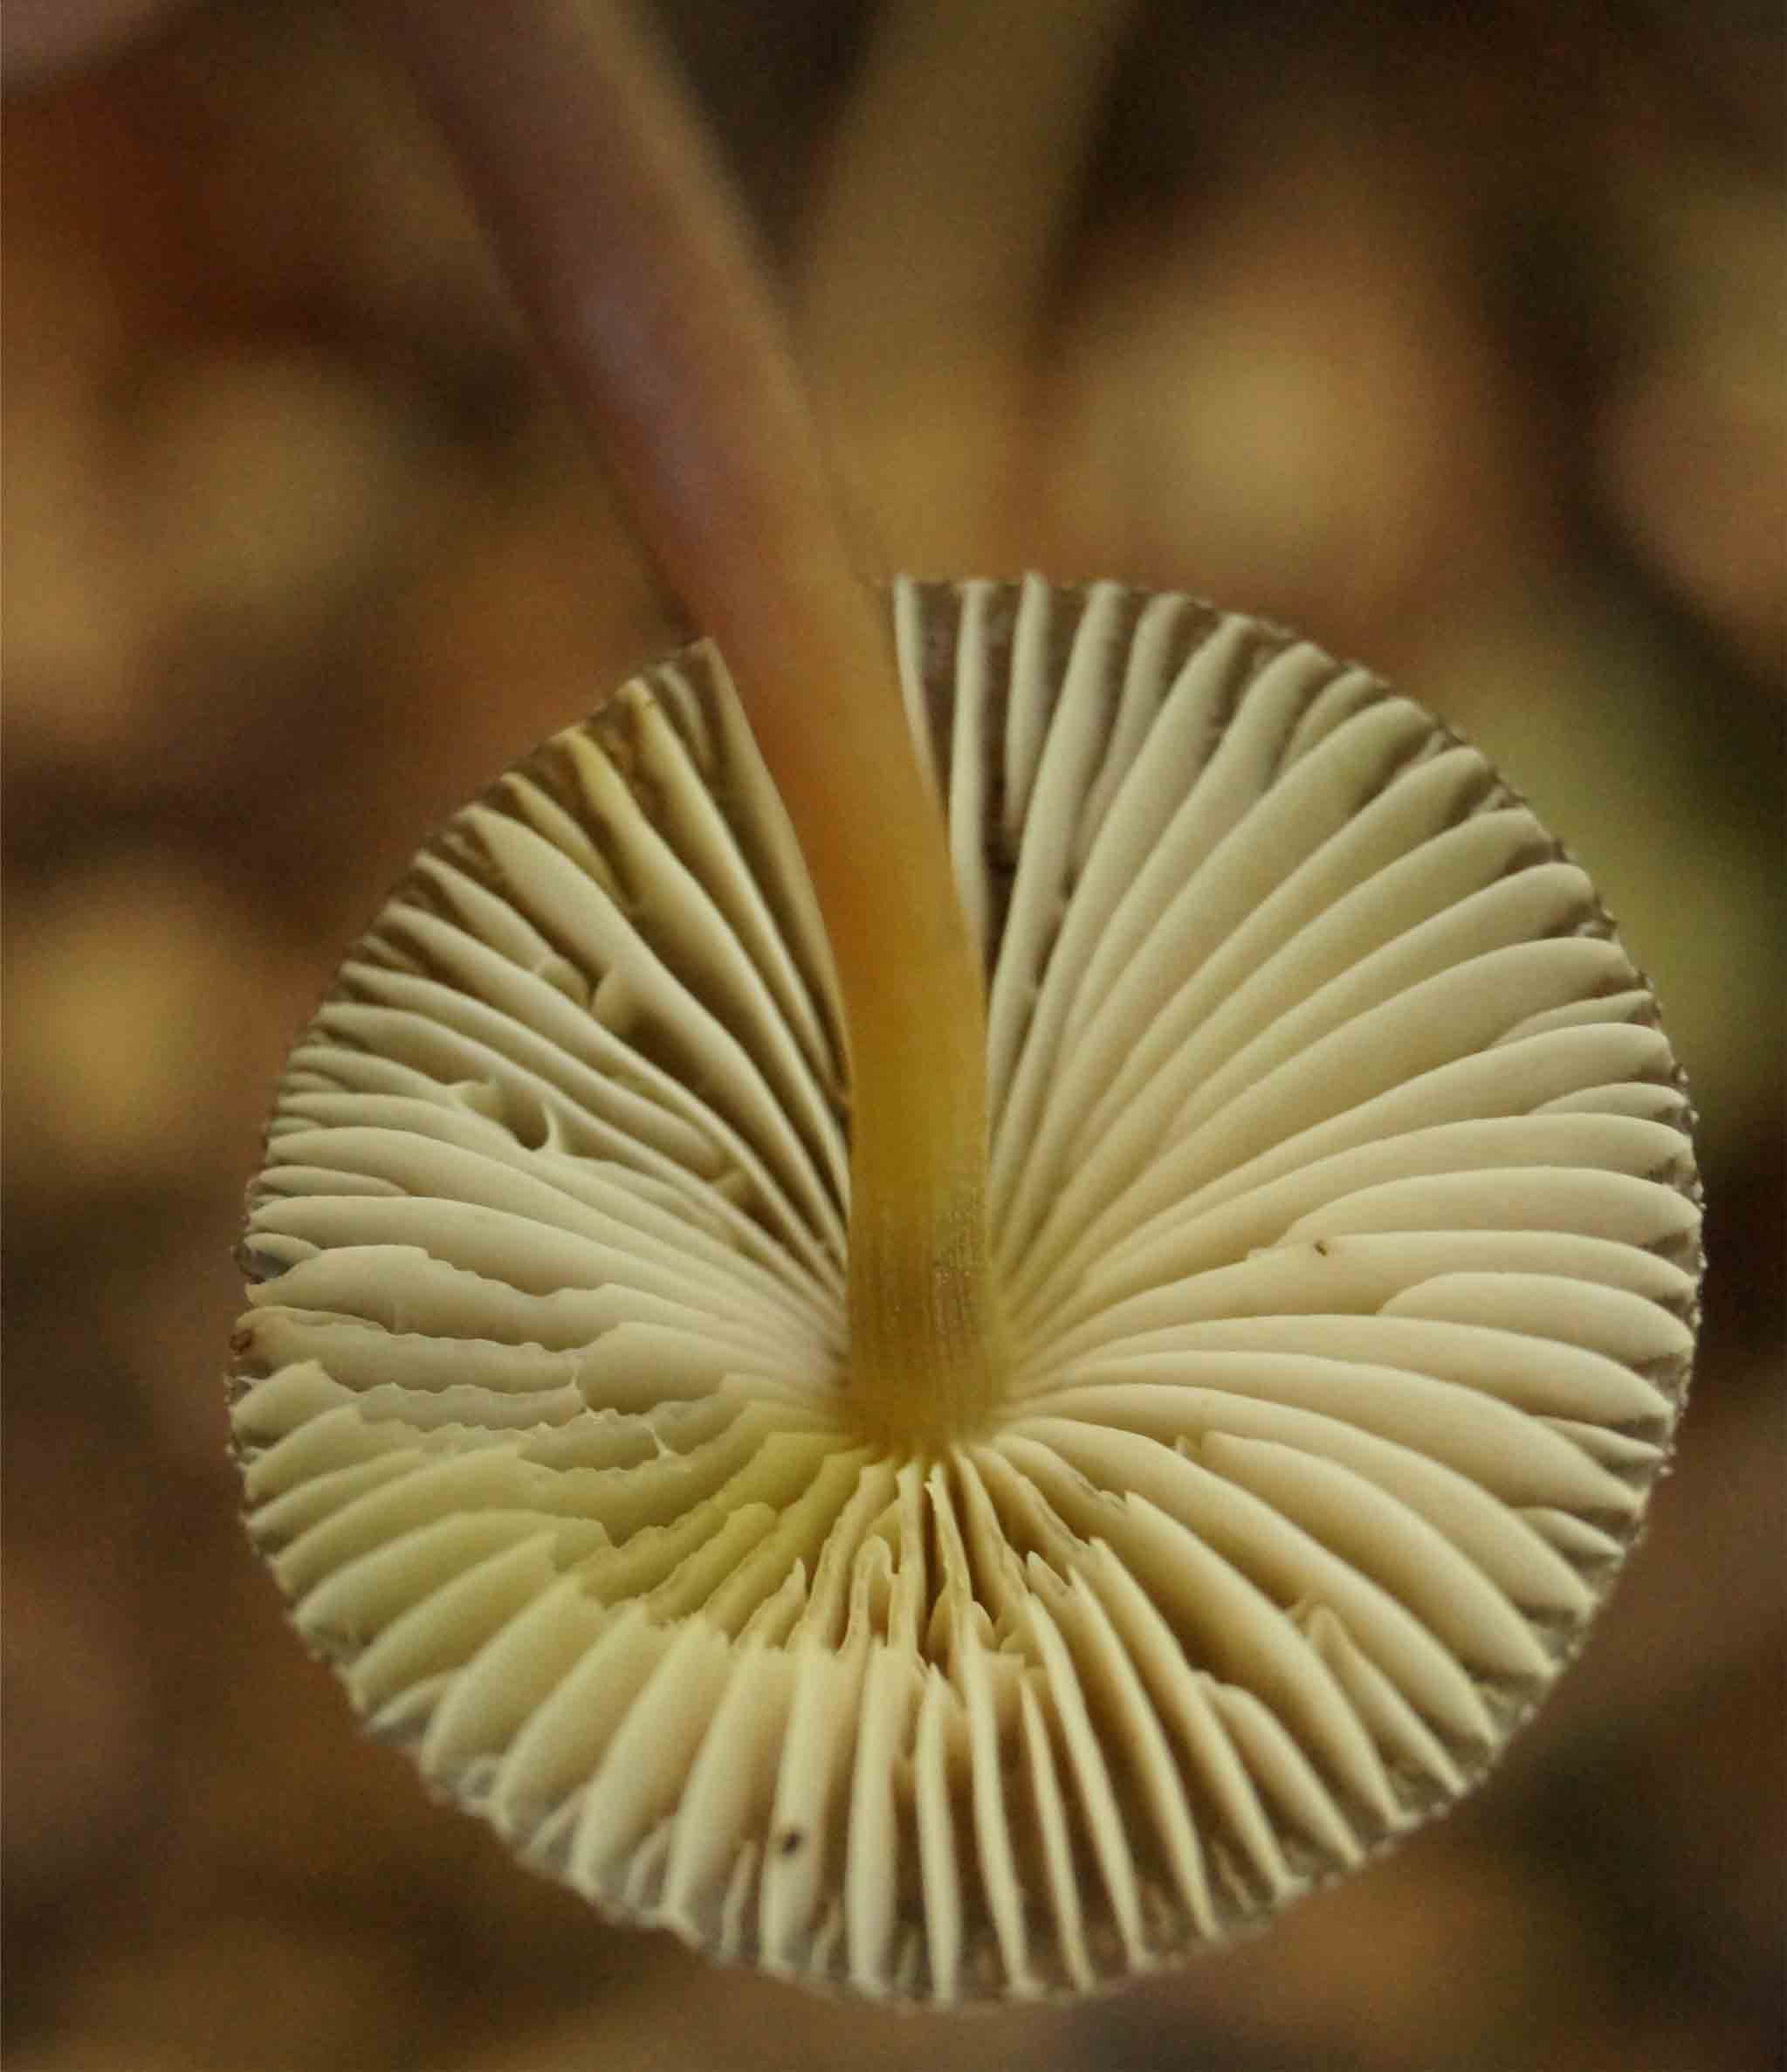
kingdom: Fungi
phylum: Basidiomycota
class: Agaricomycetes
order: Agaricales
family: Mycenaceae
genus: Mycena
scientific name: Mycena inclinata
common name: nikkende huesvamp
